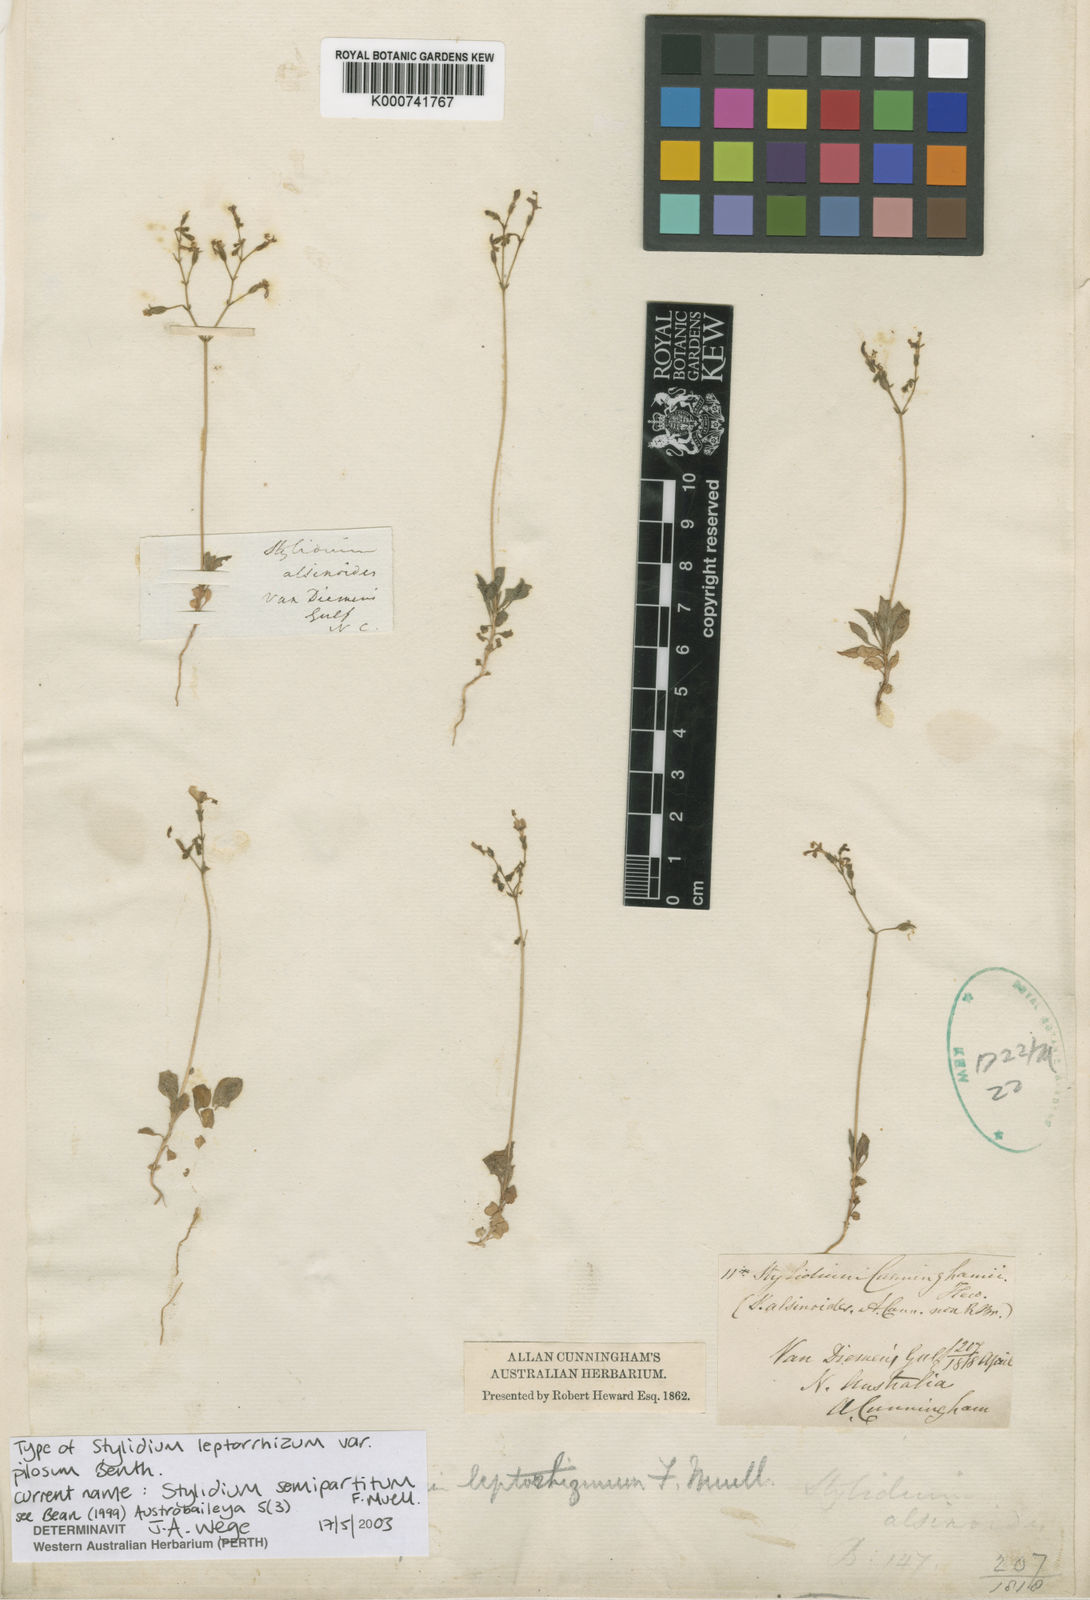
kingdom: Plantae
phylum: Tracheophyta
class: Magnoliopsida
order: Asterales
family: Stylidiaceae
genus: Stylidium
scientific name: Stylidium semipartitum
